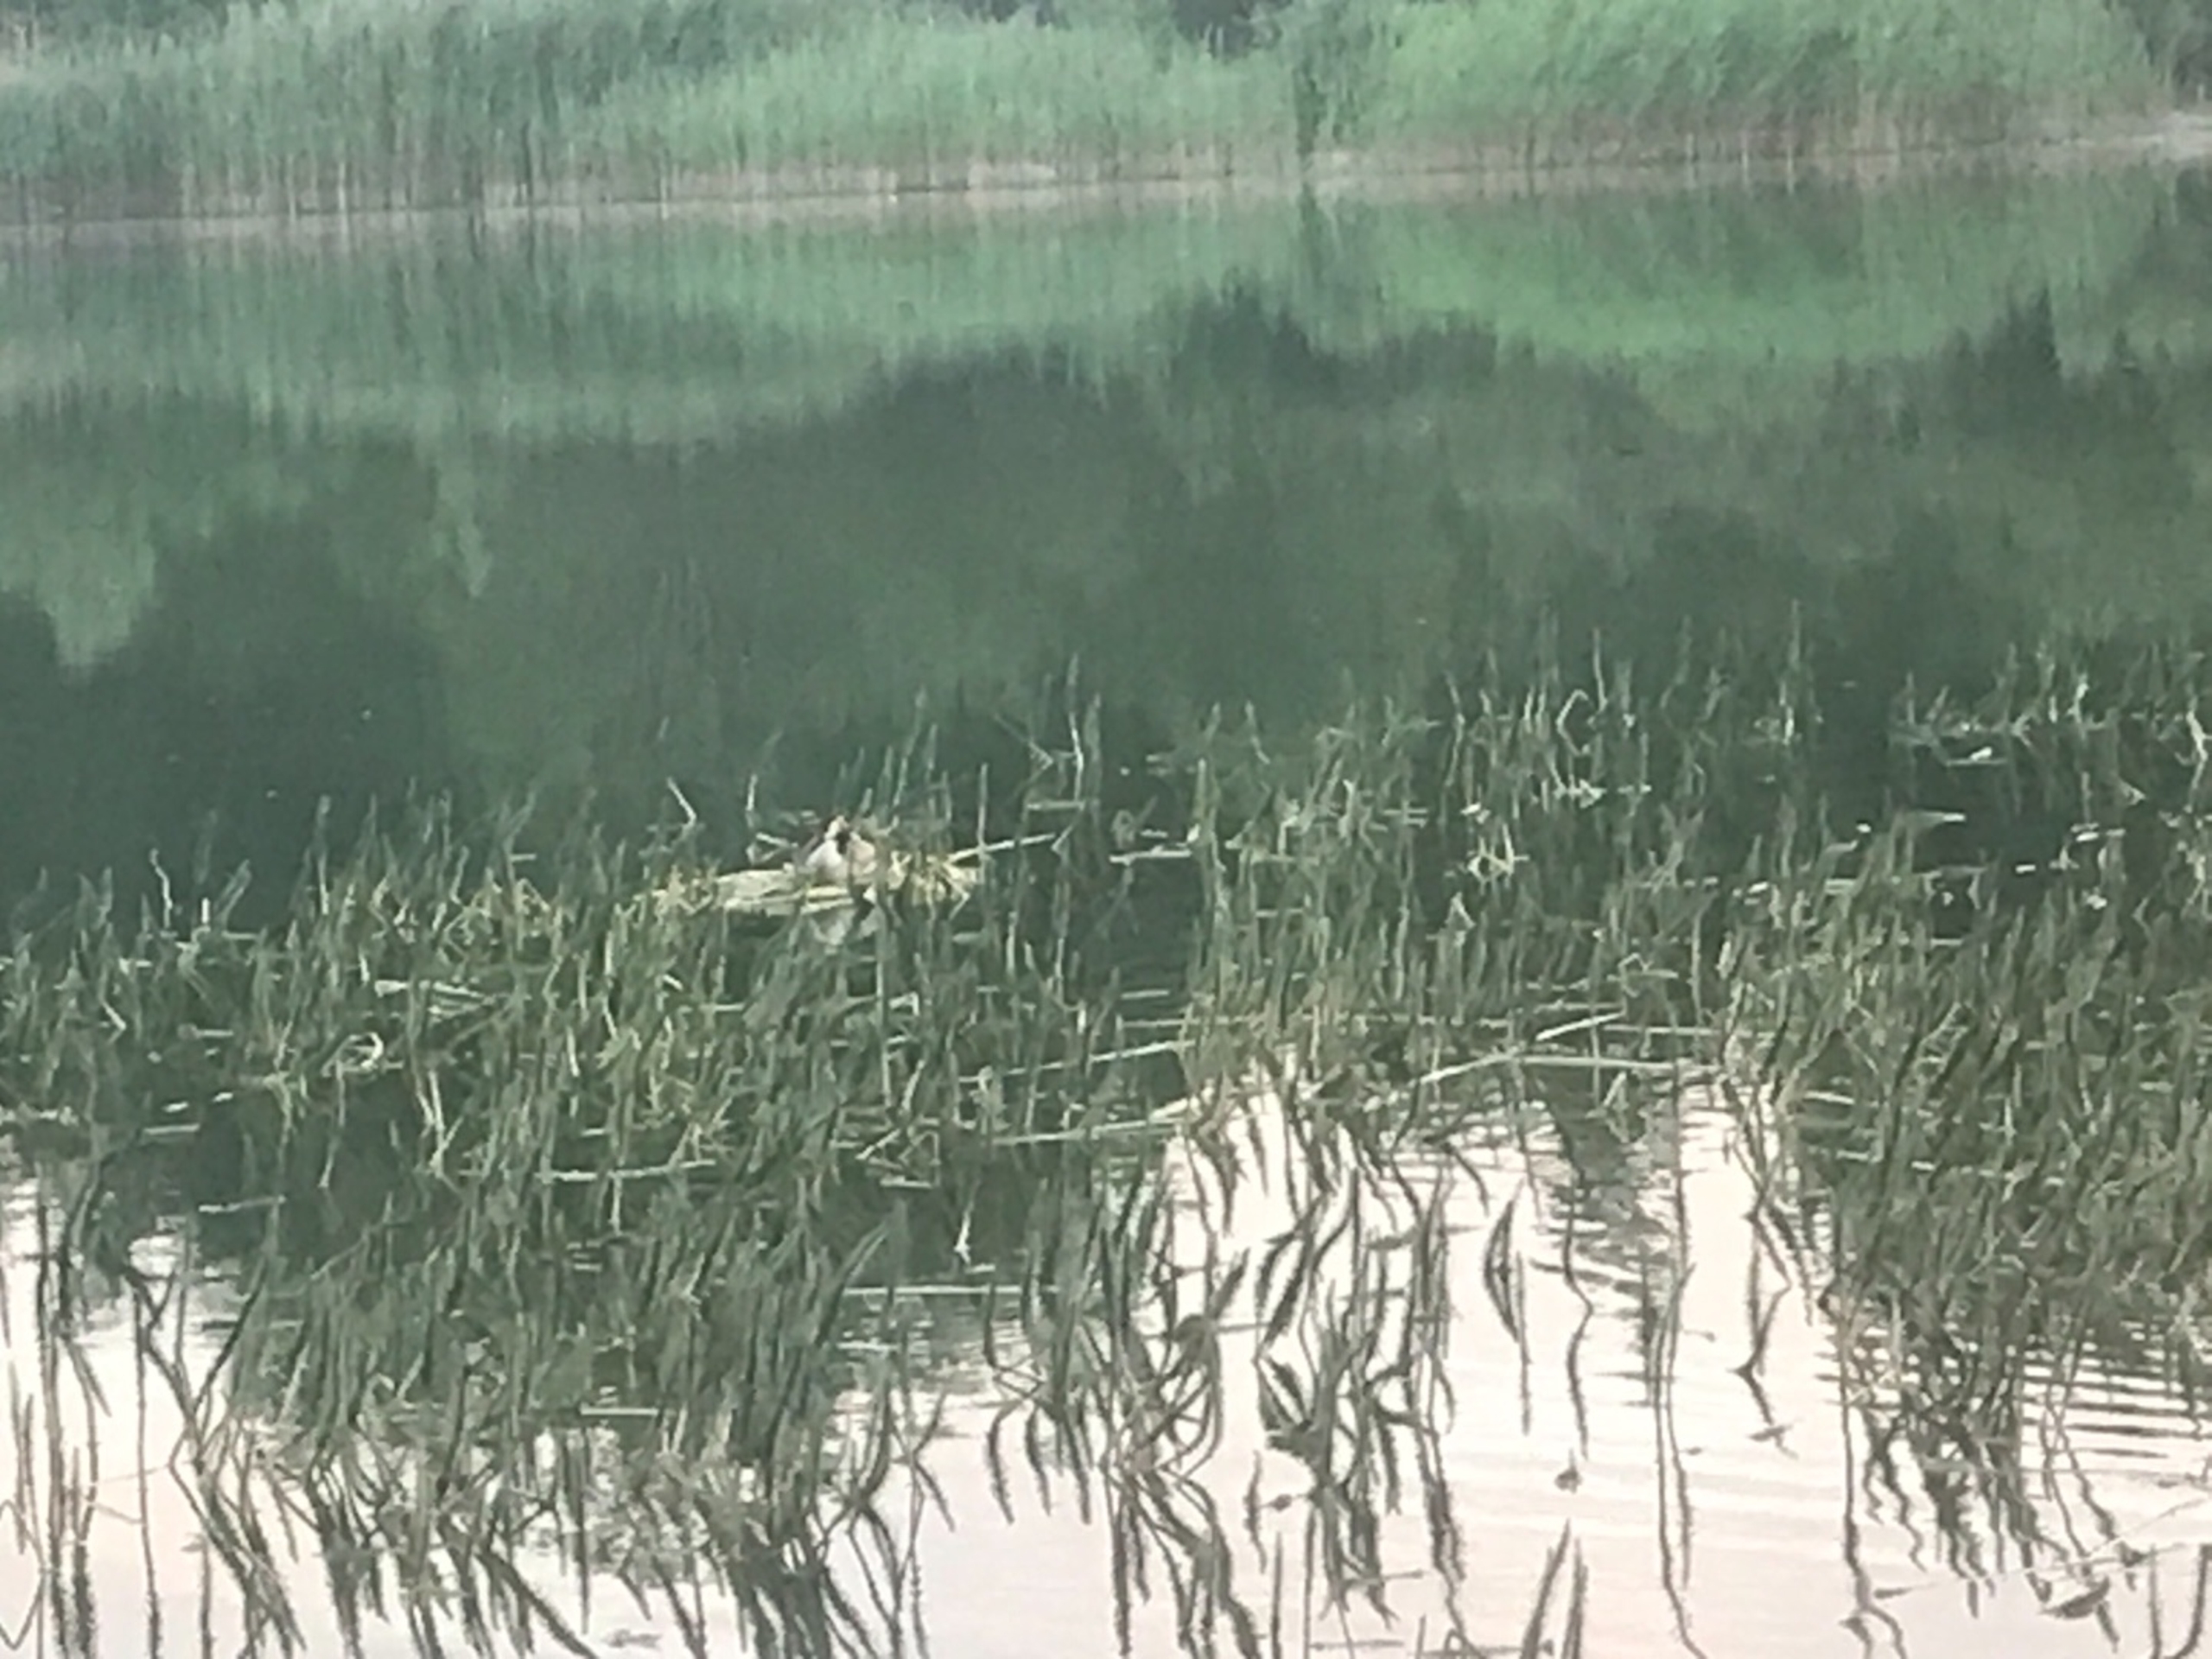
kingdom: Animalia
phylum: Chordata
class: Aves
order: Podicipediformes
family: Podicipedidae
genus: Podiceps
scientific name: Podiceps cristatus
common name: Toppet lappedykker
